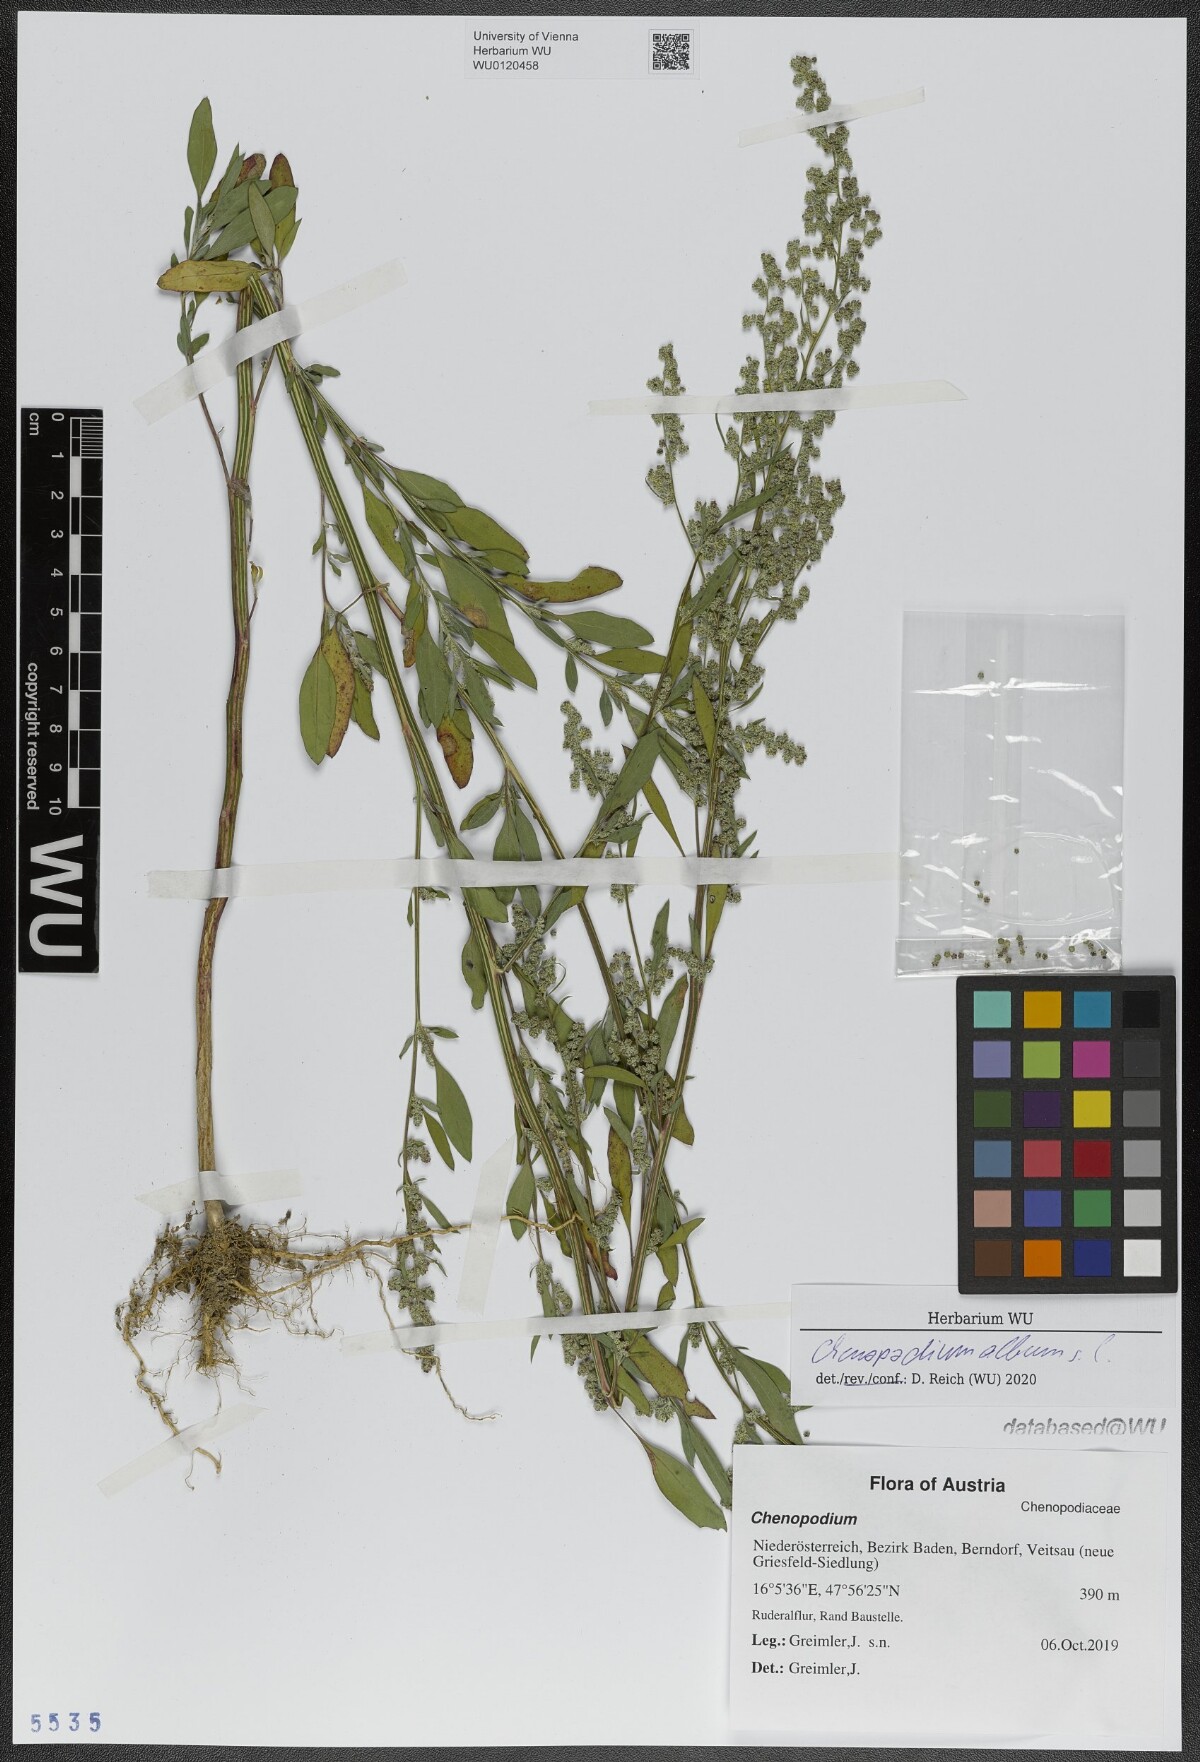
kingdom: Plantae
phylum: Tracheophyta
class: Magnoliopsida
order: Caryophyllales
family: Amaranthaceae
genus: Chenopodium
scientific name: Chenopodium album
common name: Fat-hen
